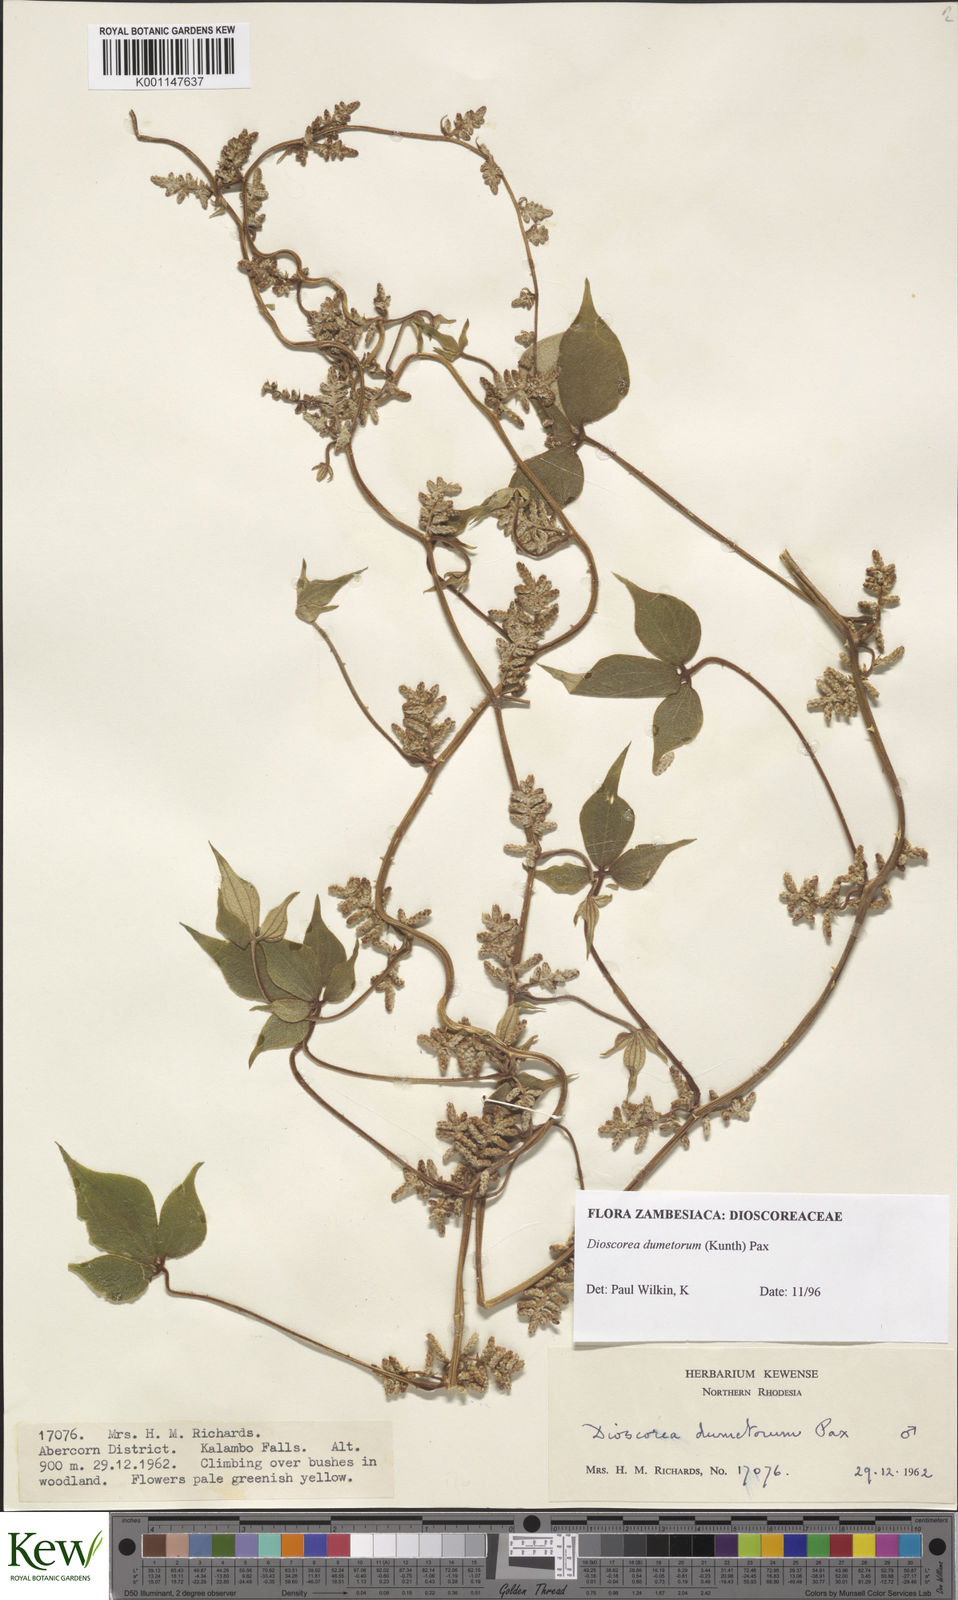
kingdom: Plantae
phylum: Tracheophyta
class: Liliopsida
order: Dioscoreales
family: Dioscoreaceae
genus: Dioscorea
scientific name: Dioscorea dumetorum
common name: African bitter yam
